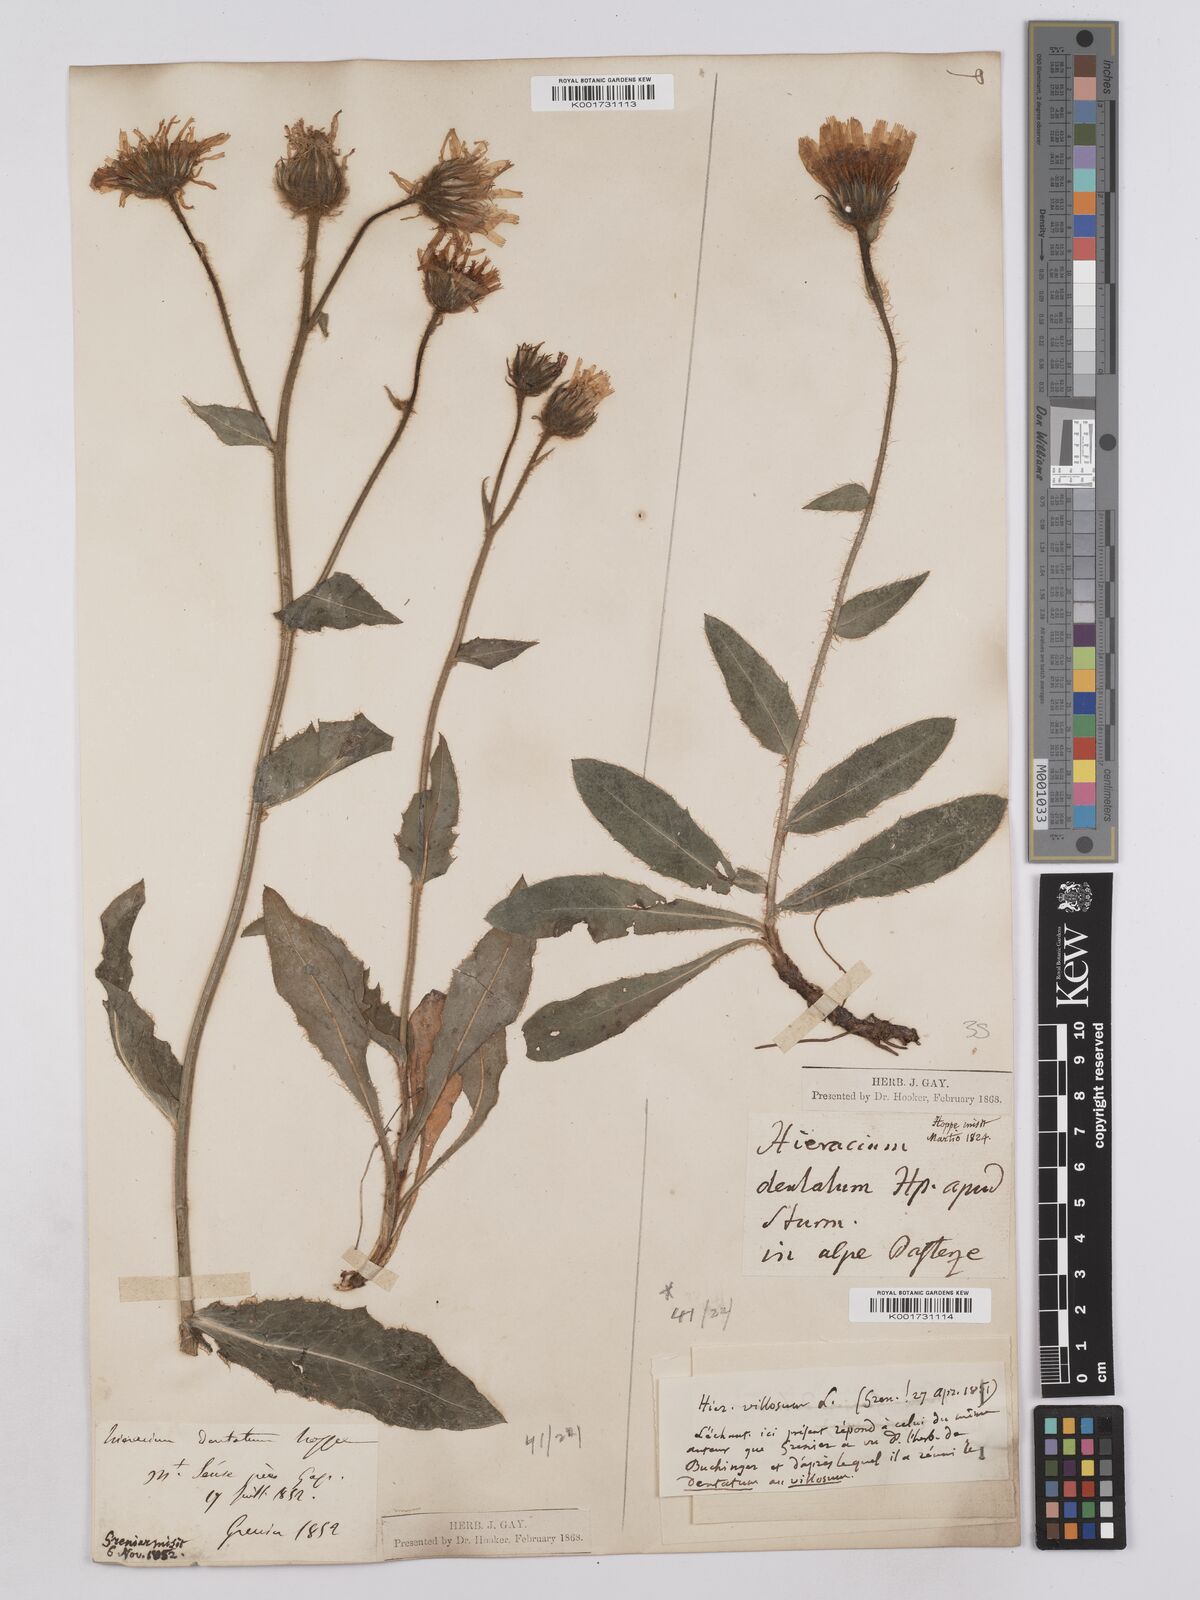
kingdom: Plantae
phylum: Tracheophyta
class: Magnoliopsida
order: Asterales
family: Asteraceae
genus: Hieracium
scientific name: Hieracium villosum
